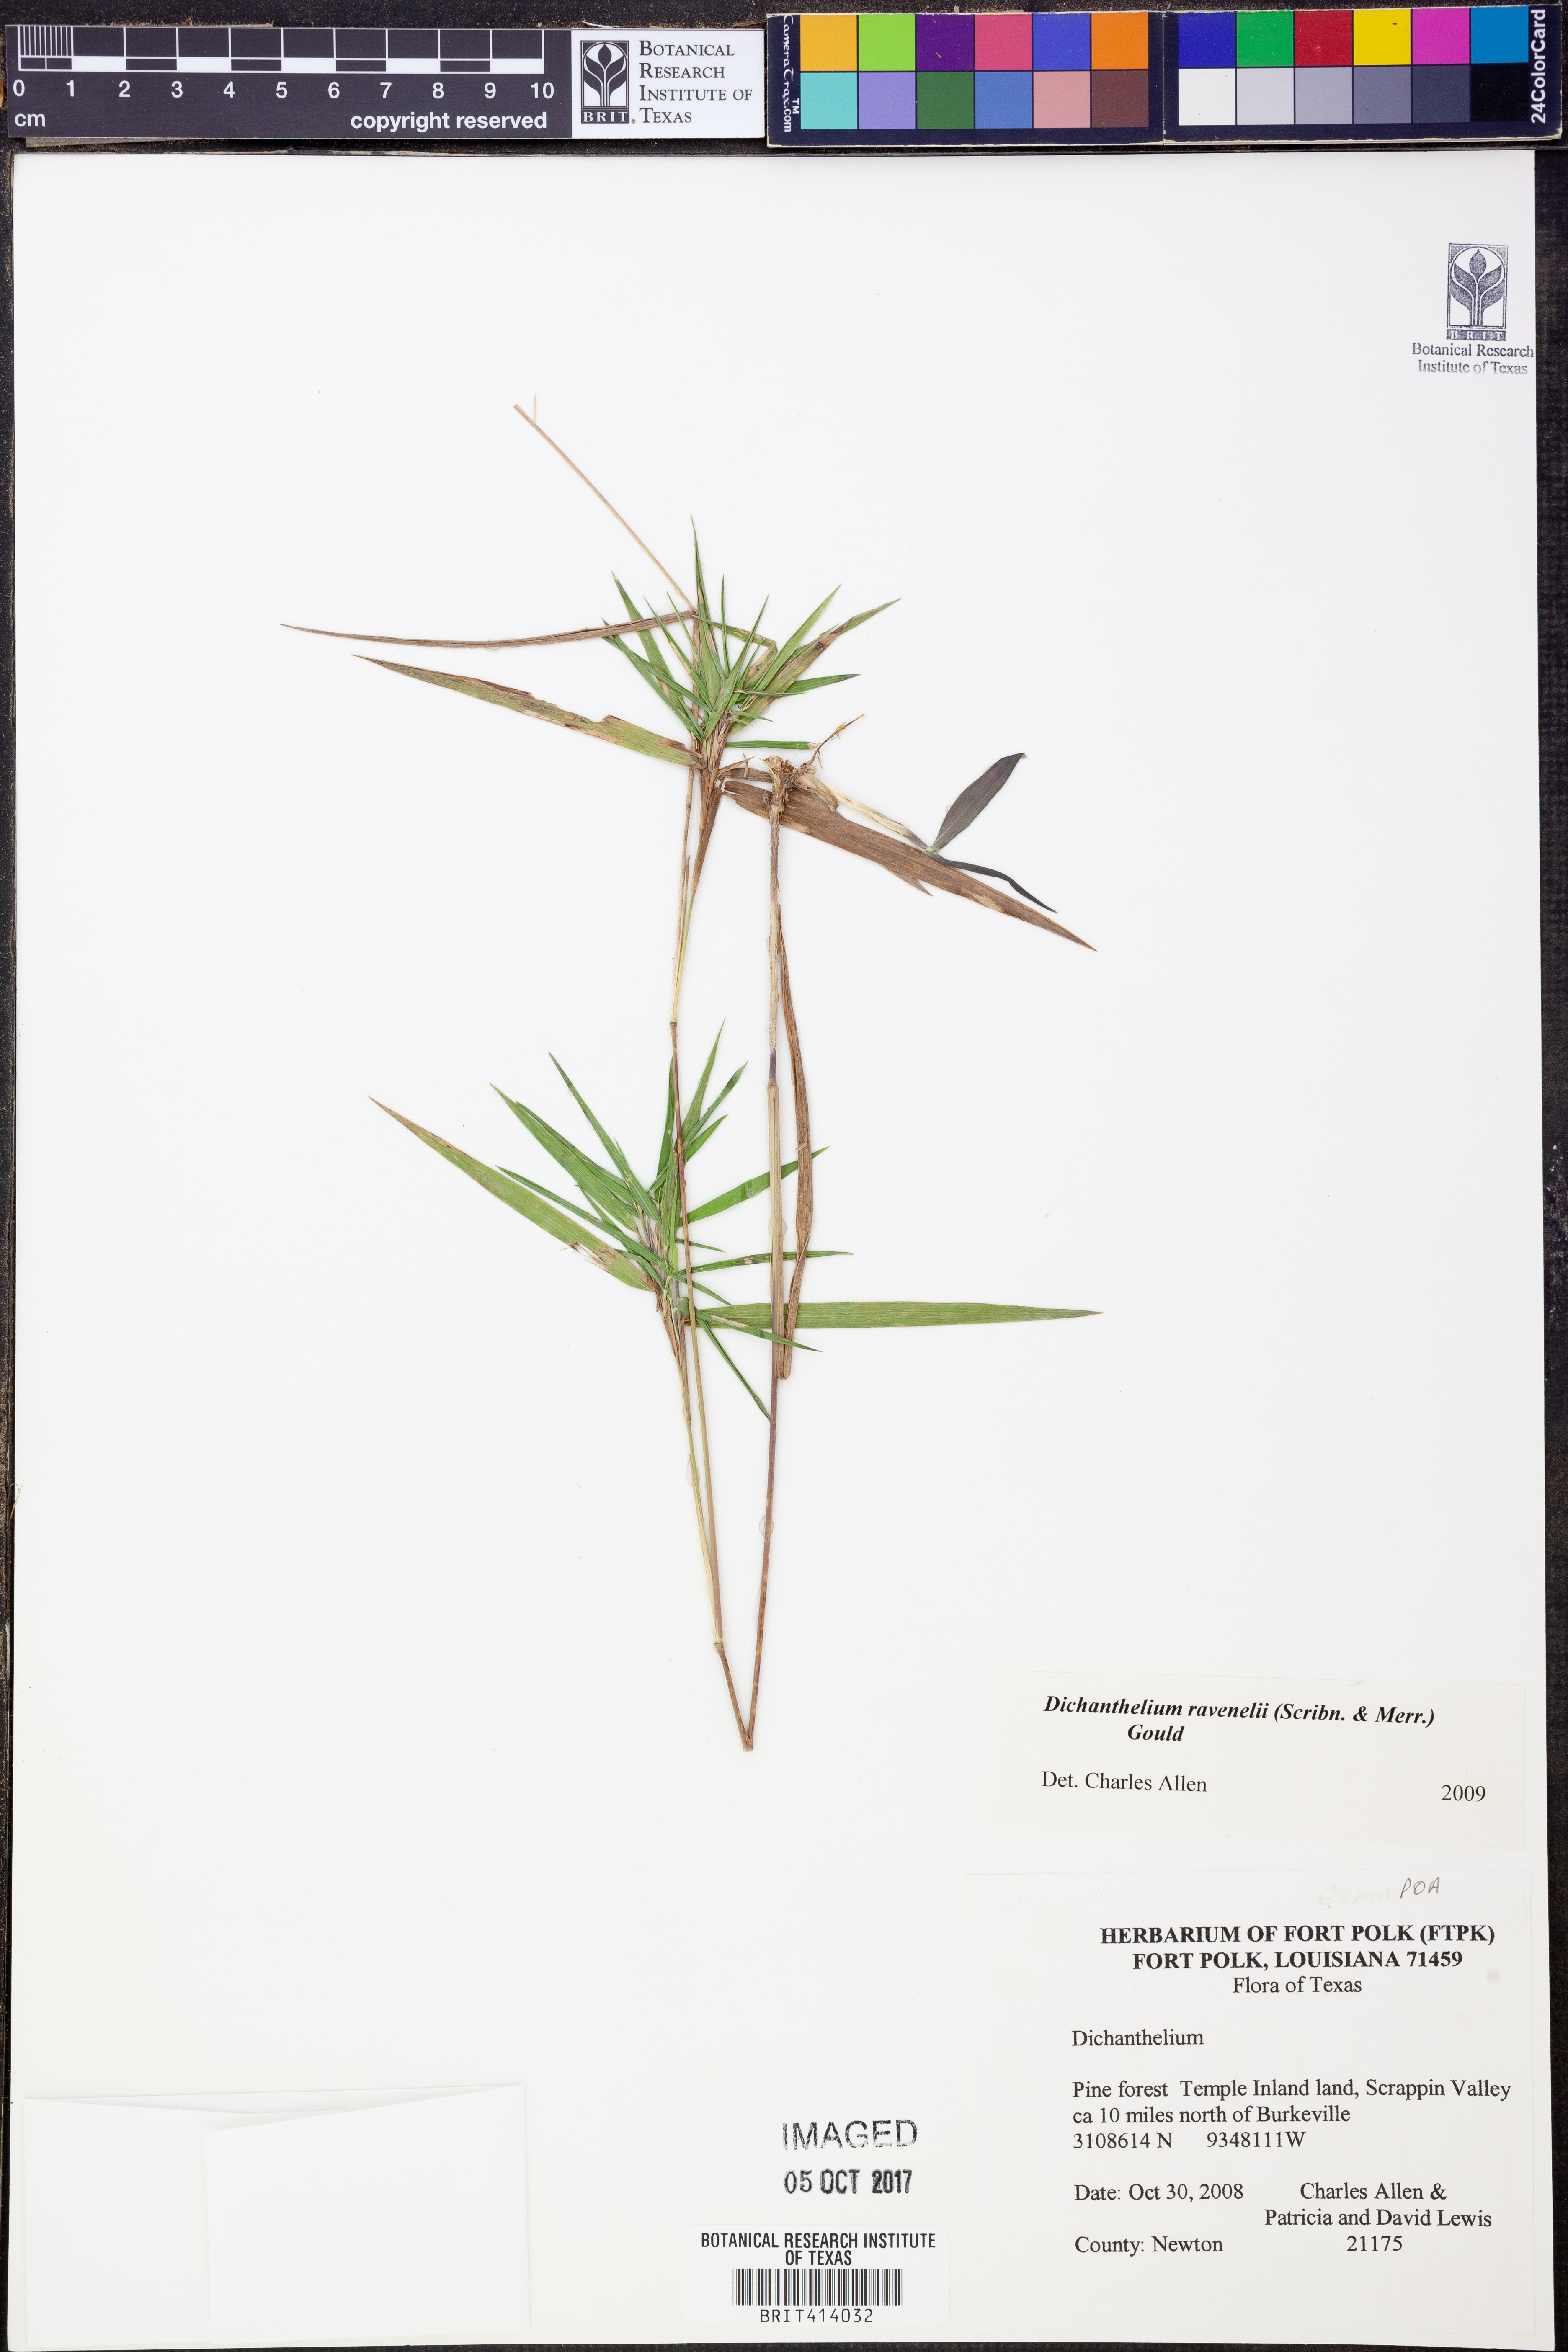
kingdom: Plantae
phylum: Tracheophyta
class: Liliopsida
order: Poales
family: Poaceae
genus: Dichanthelium
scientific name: Dichanthelium ravenelii
